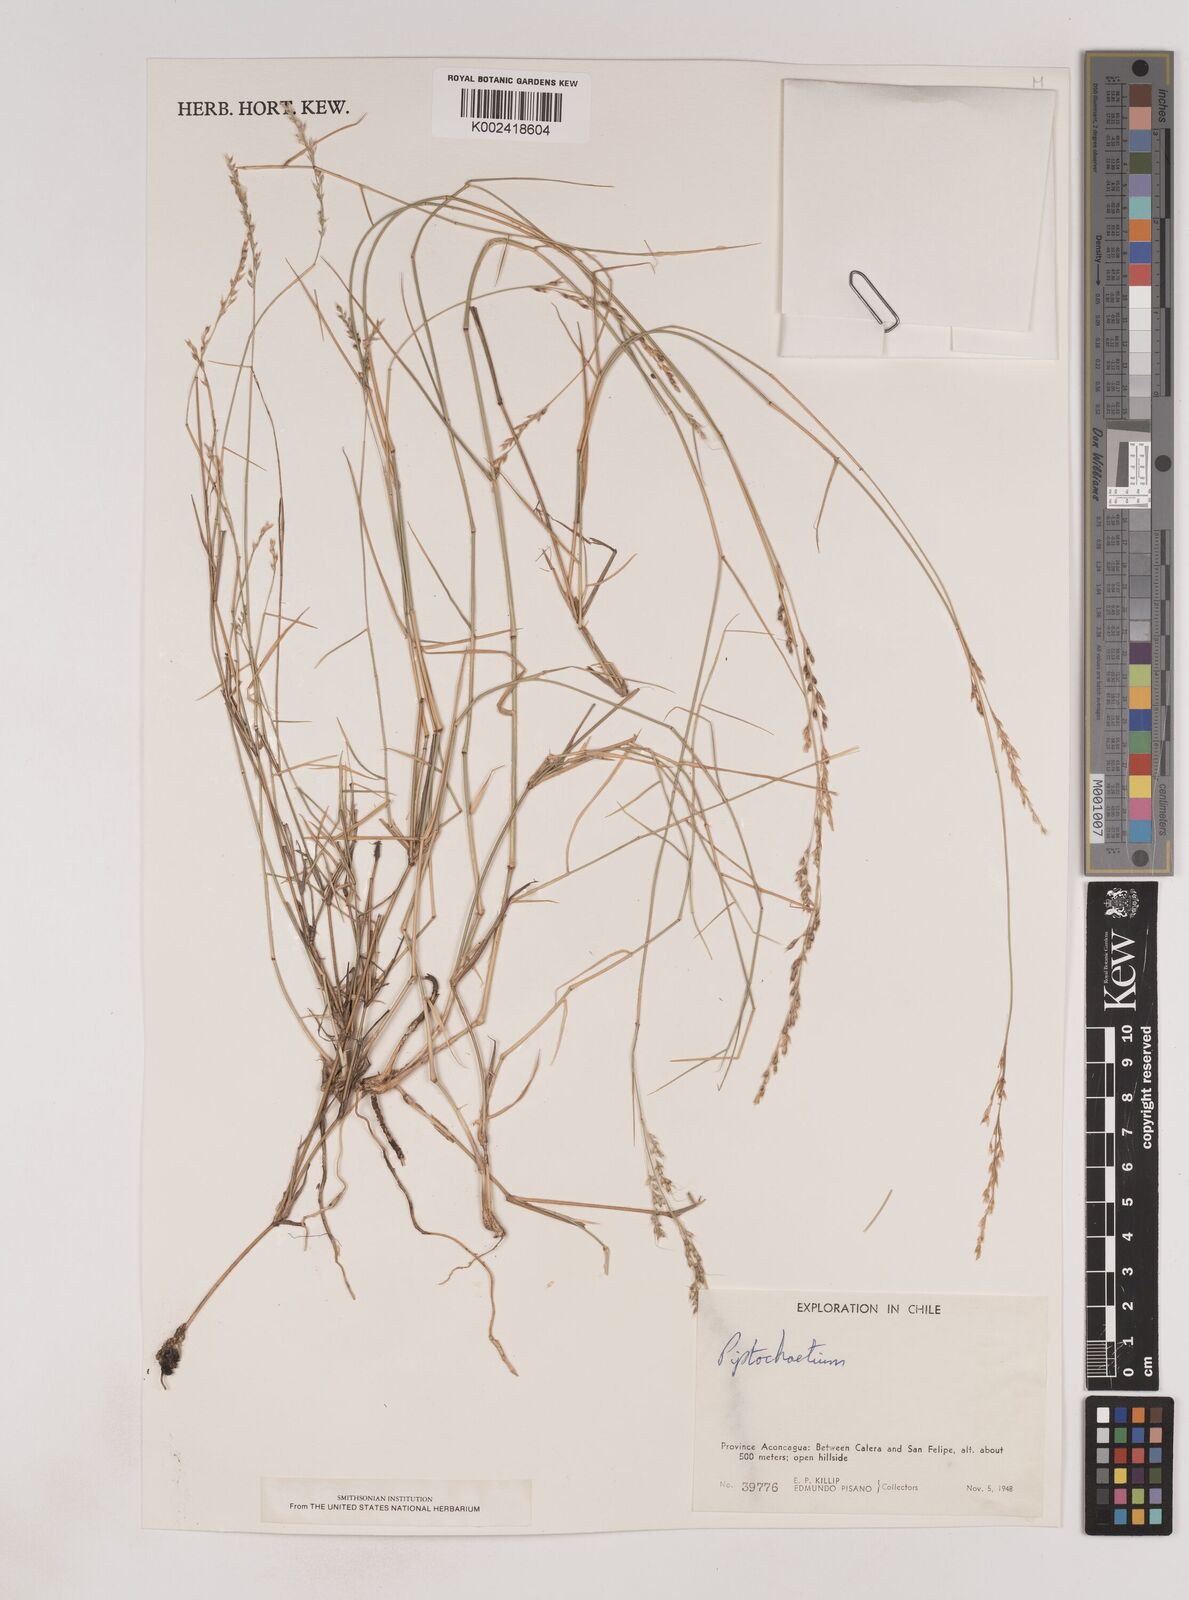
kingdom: Plantae
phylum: Tracheophyta
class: Liliopsida
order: Poales
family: Poaceae
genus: Piptochaetium
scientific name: Piptochaetium
